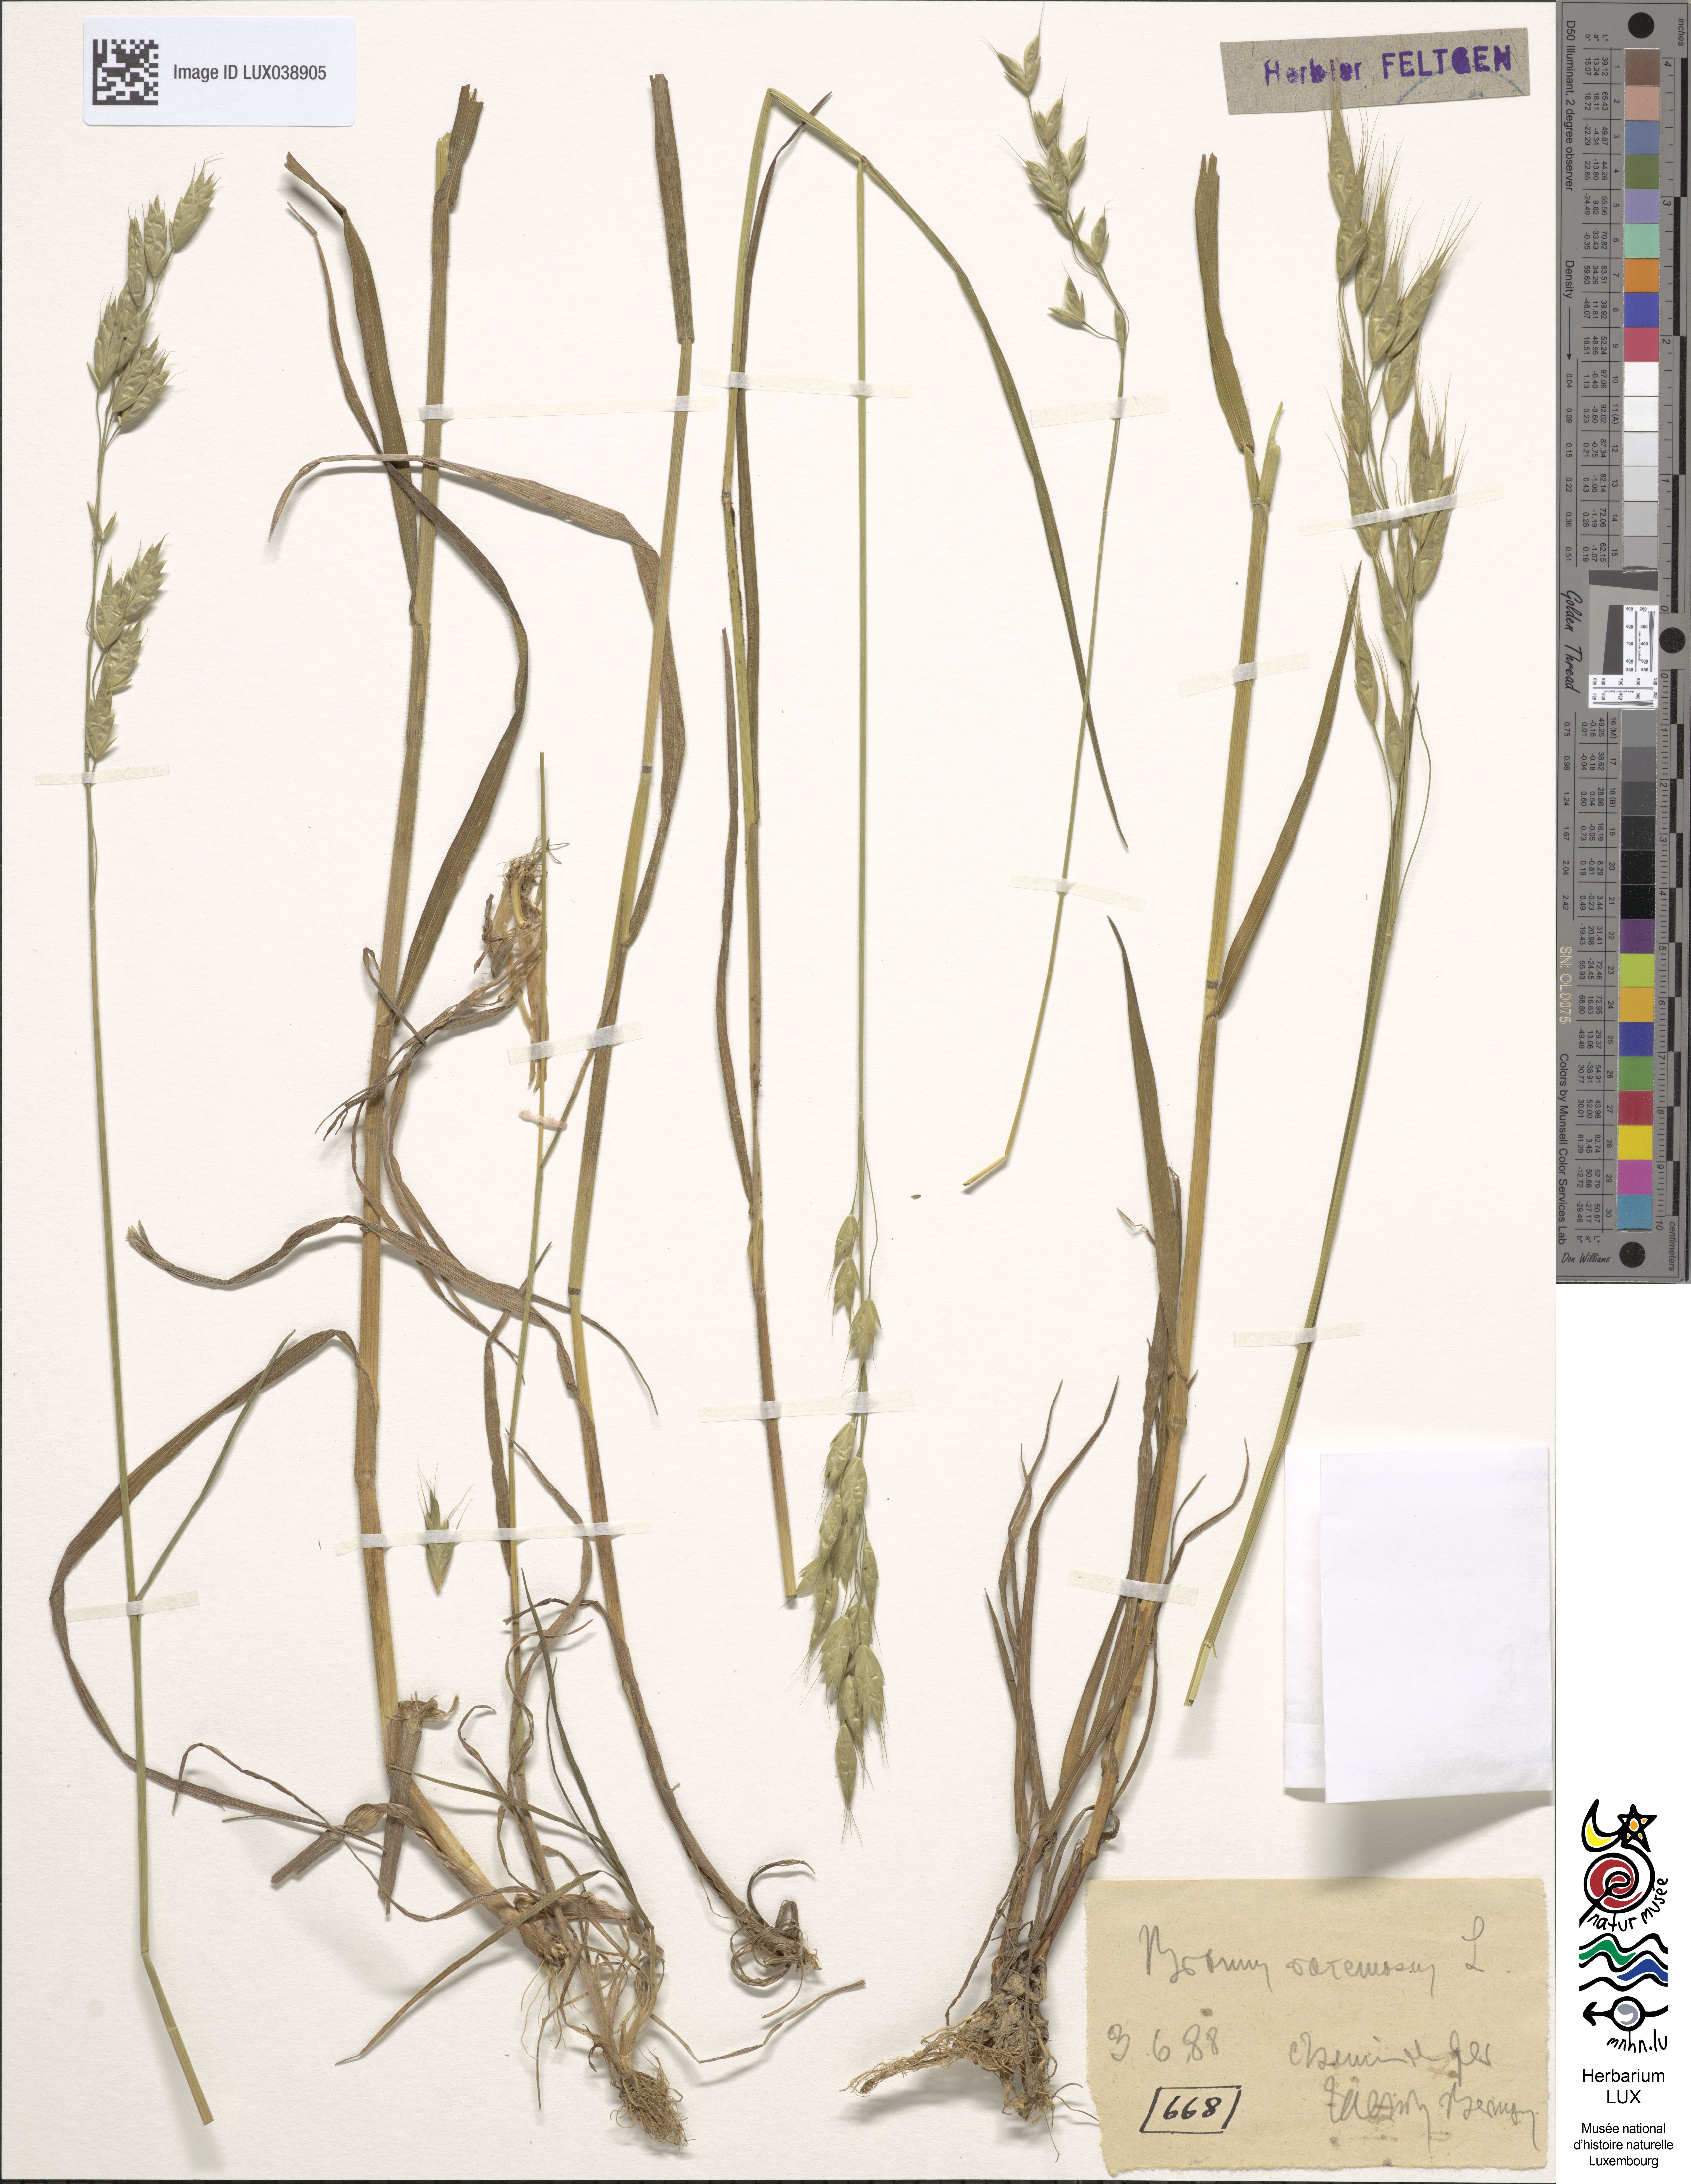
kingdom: Plantae
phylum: Tracheophyta
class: Liliopsida
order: Poales
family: Poaceae
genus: Bromus
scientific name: Bromus racemosus
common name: Bald brome
